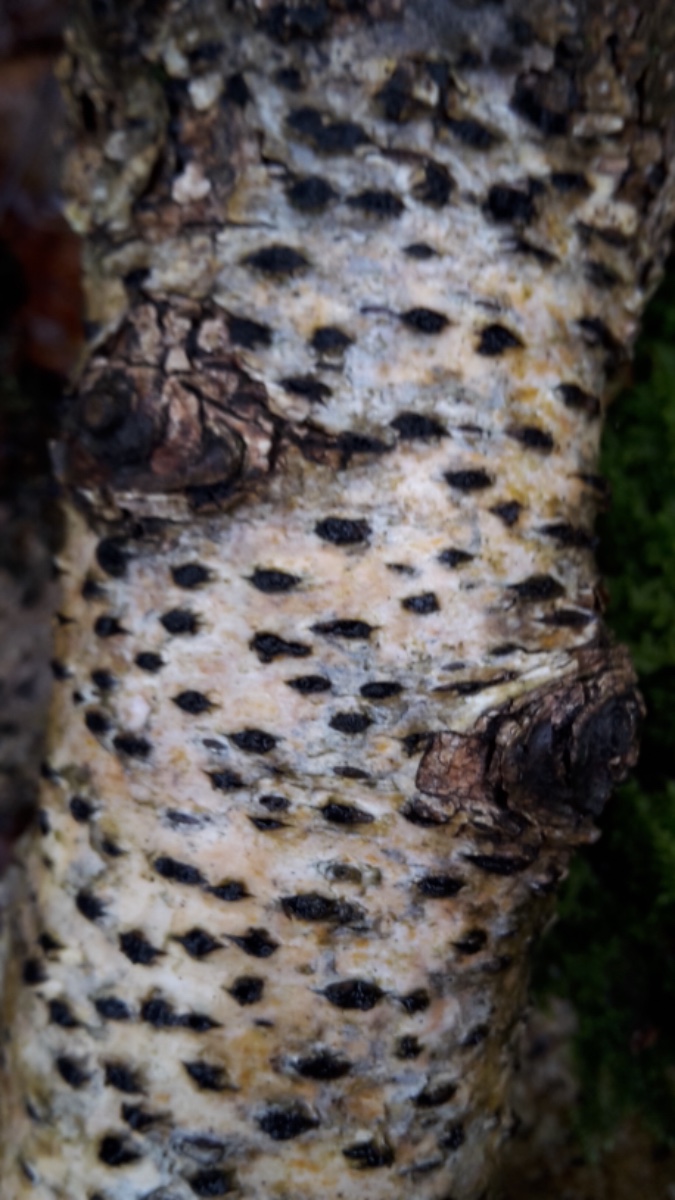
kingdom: Fungi
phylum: Ascomycota
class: Sordariomycetes
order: Xylariales
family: Diatrypaceae
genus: Diatrypella
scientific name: Diatrypella favacea
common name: Birch blackhead
